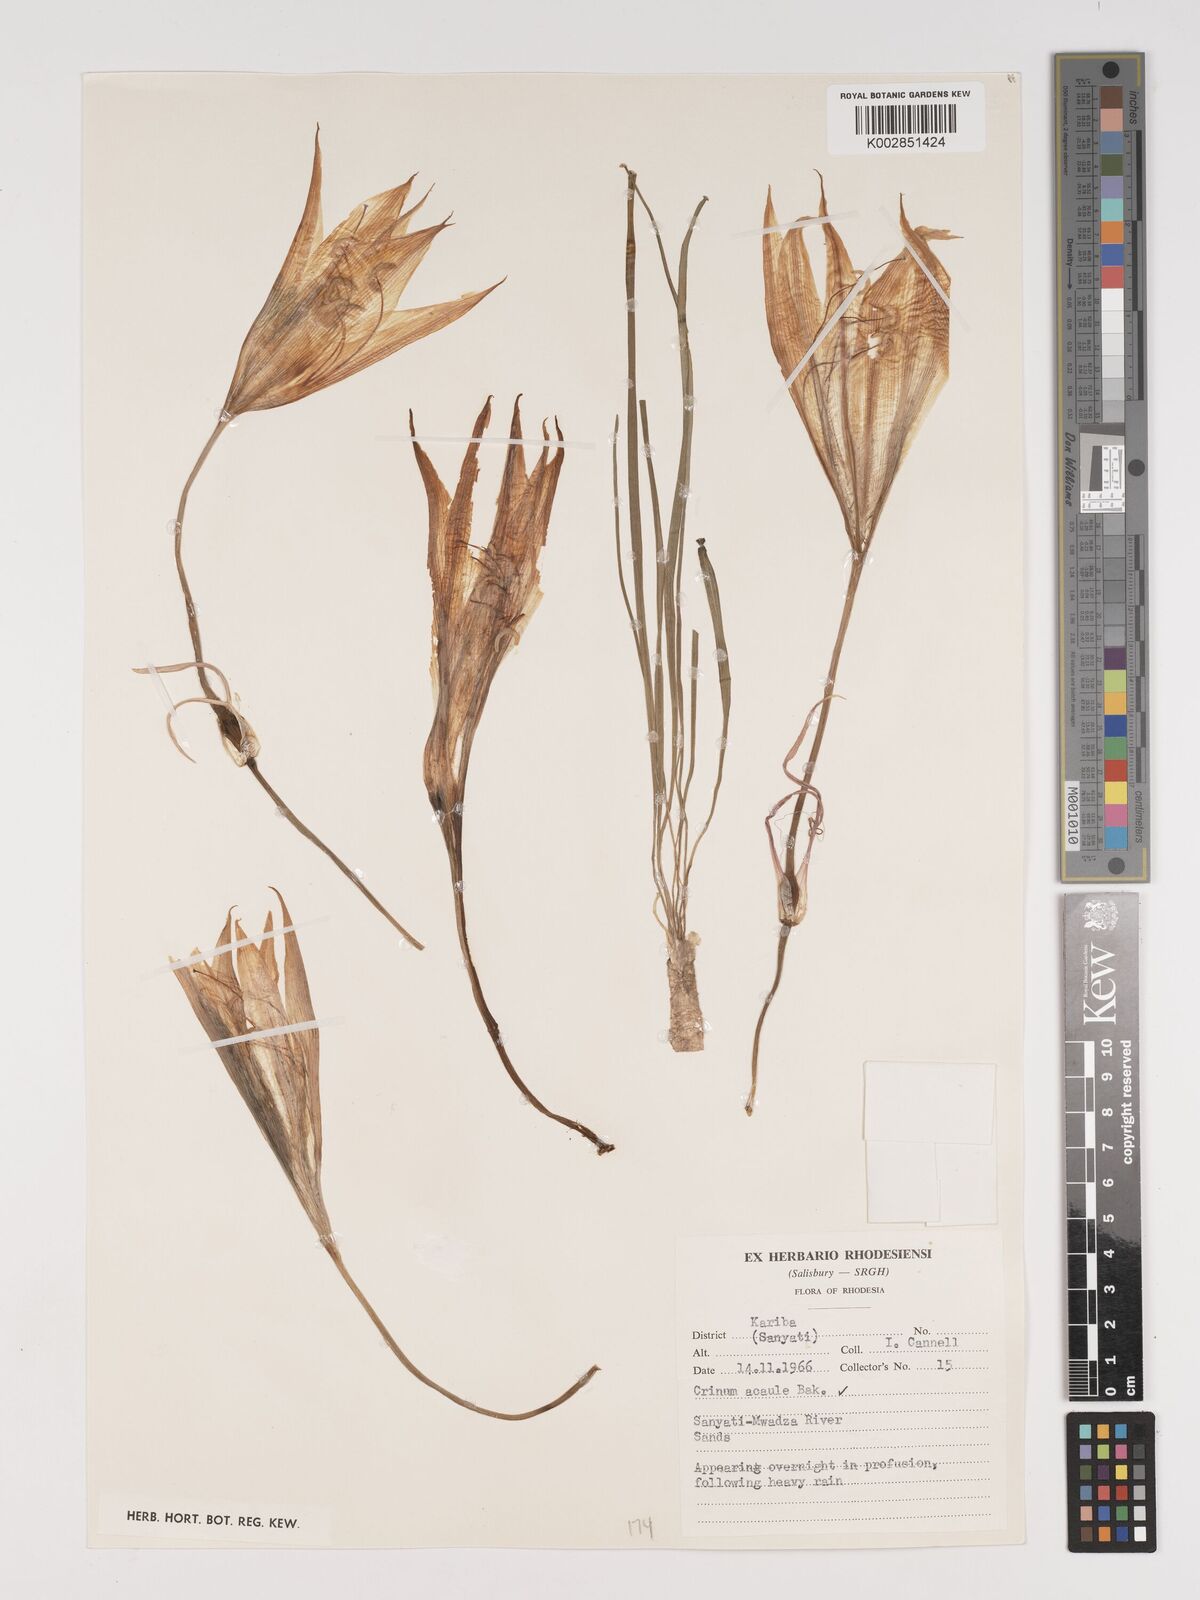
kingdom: Plantae
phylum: Tracheophyta
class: Liliopsida
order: Asparagales
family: Amaryllidaceae
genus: Crinum
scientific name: Crinum walteri
